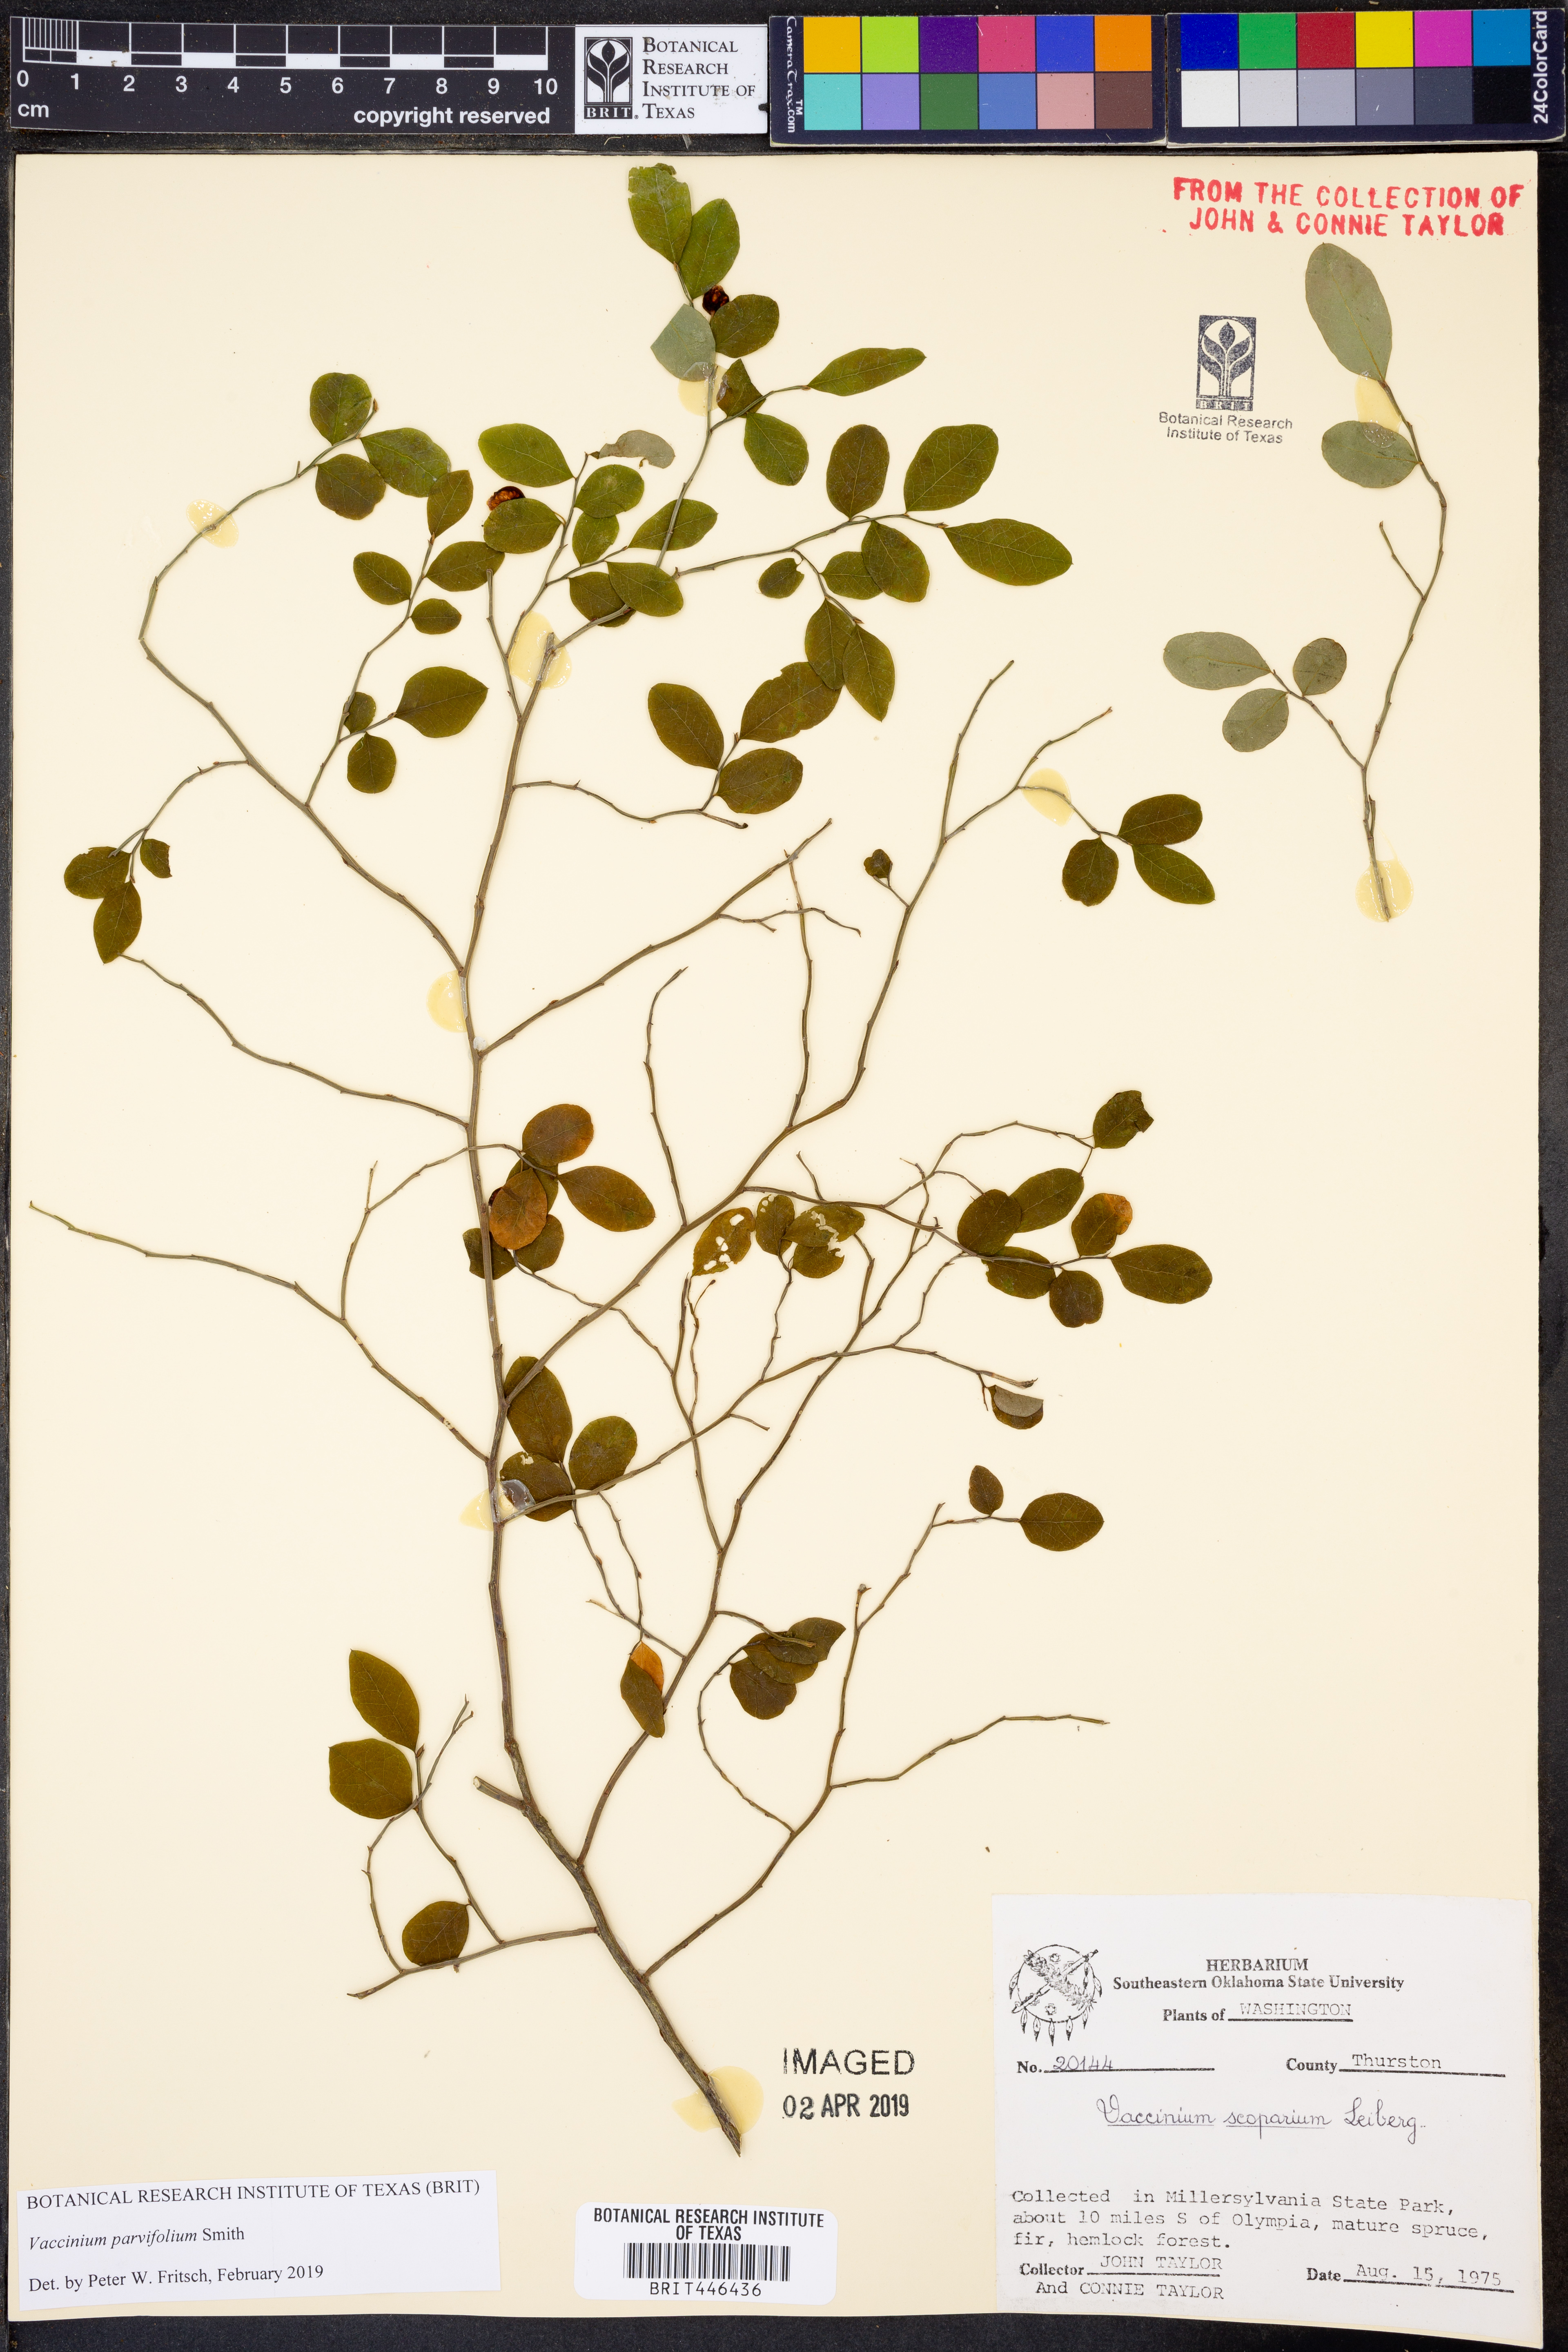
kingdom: Plantae
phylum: Tracheophyta
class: Magnoliopsida
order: Ericales
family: Ericaceae
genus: Vaccinium
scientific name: Vaccinium parvifolium
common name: Red-huckleberry
